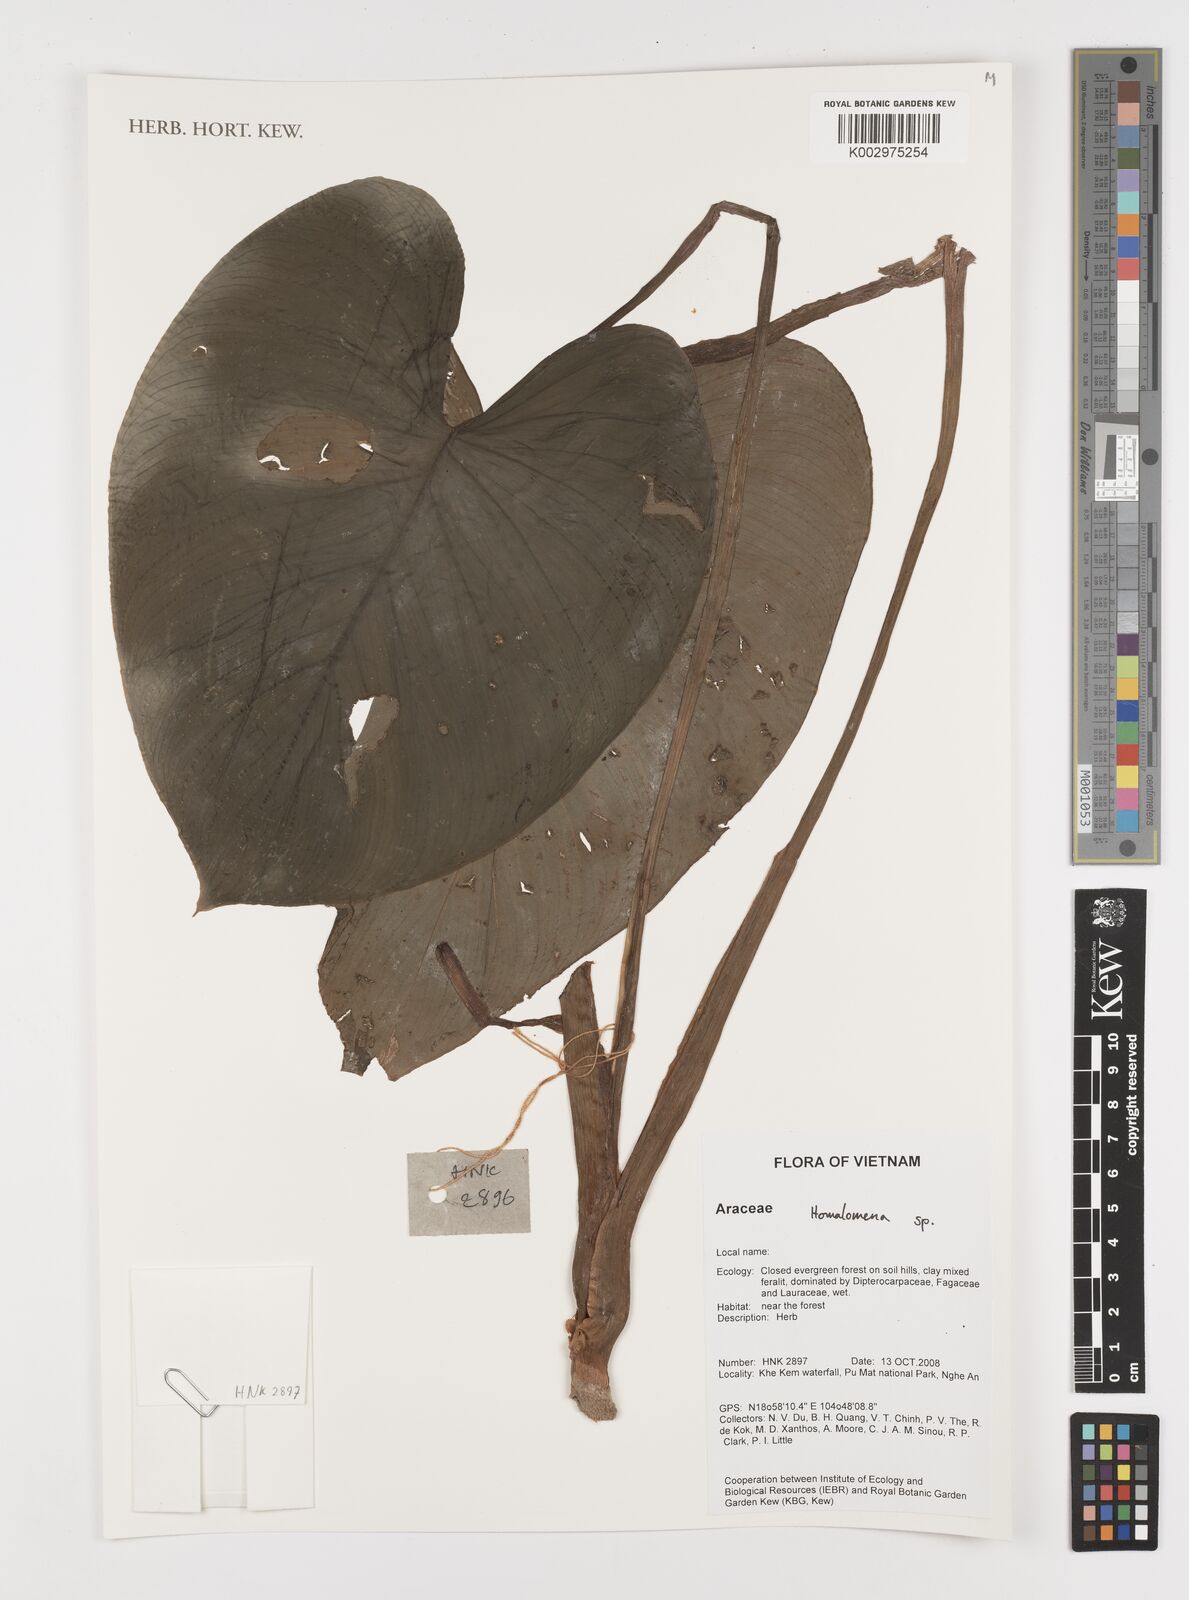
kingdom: Plantae
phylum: Tracheophyta
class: Liliopsida
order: Alismatales
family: Araceae
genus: Homalomena
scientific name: Homalomena
